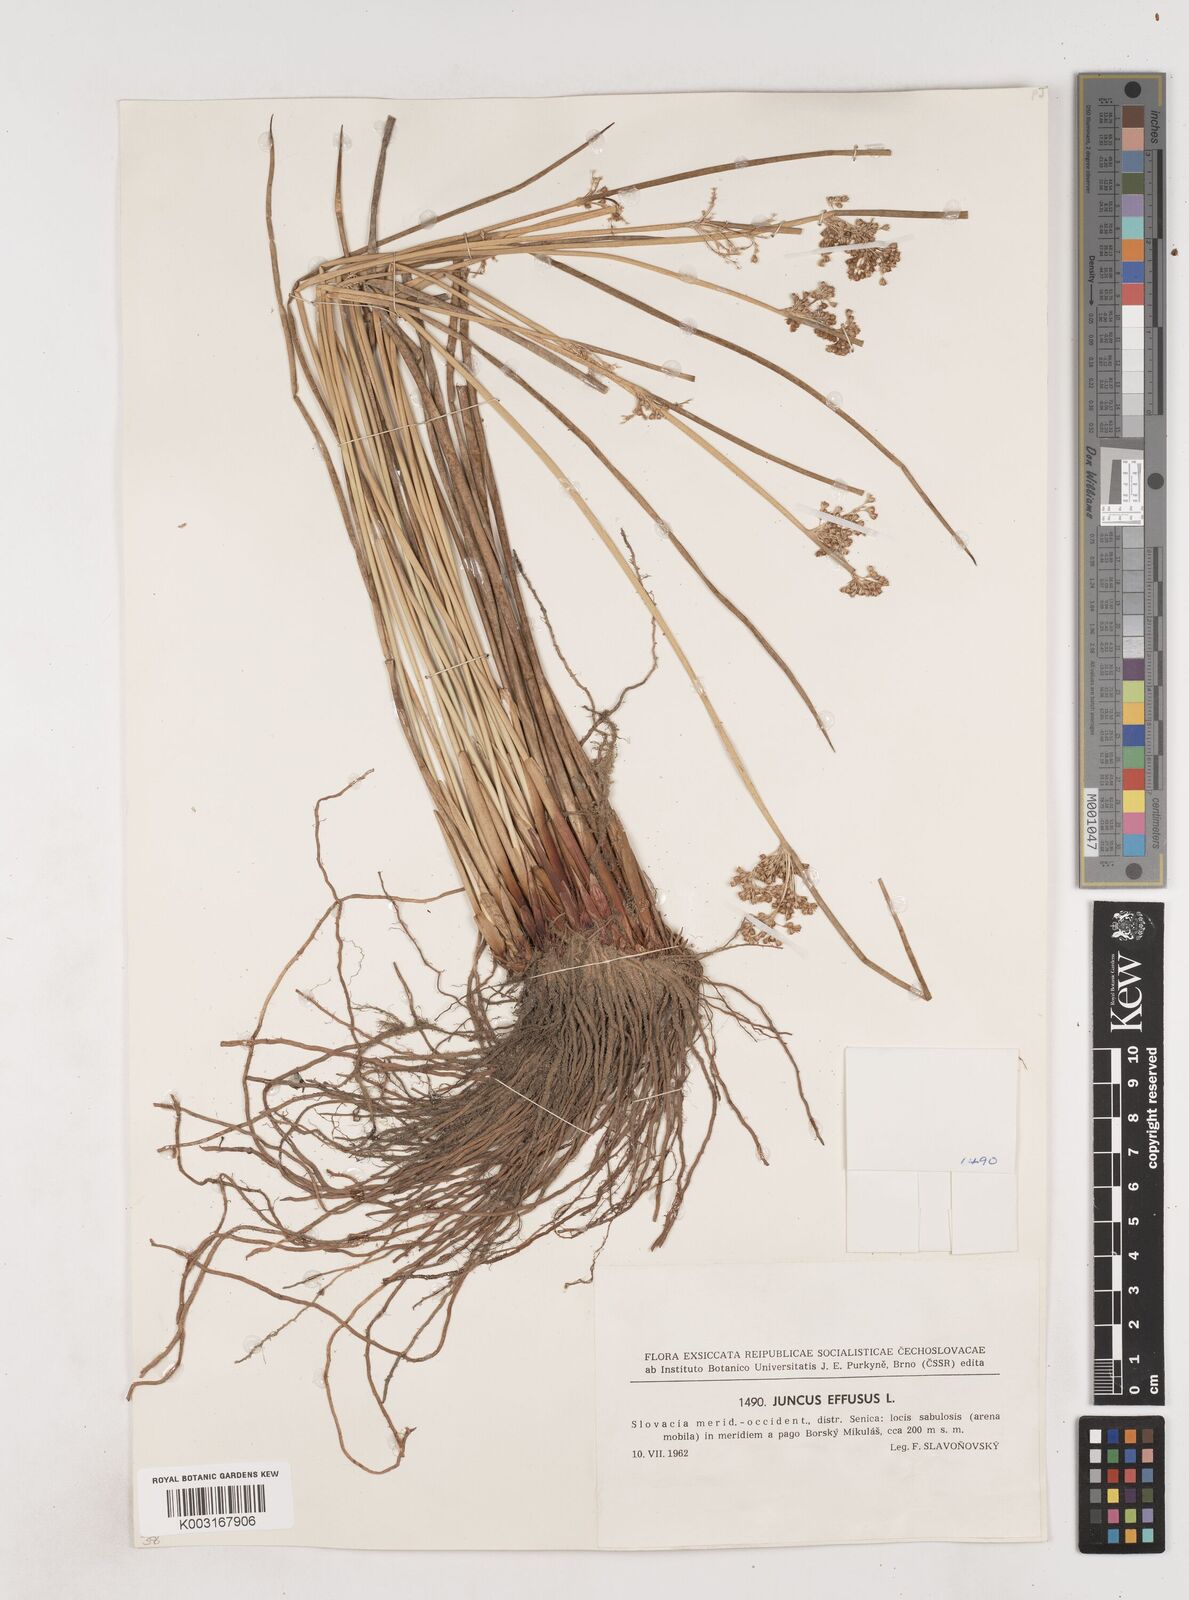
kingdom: Plantae
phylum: Tracheophyta
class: Liliopsida
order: Poales
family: Juncaceae
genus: Juncus
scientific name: Juncus effusus
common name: Soft rush
